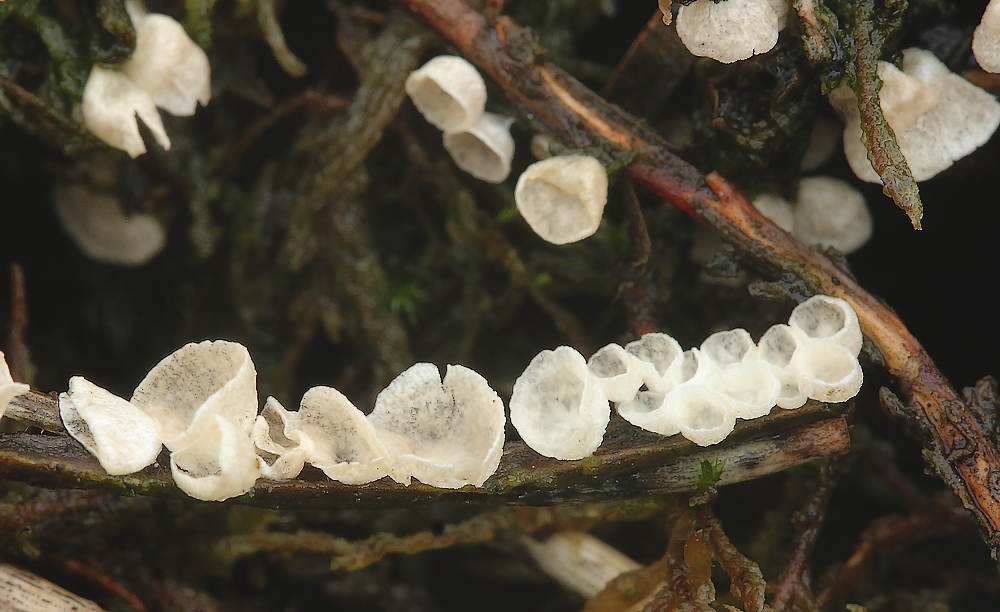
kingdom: Fungi
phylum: Basidiomycota
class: Agaricomycetes
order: Agaricales
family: Hygrophoraceae
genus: Arrhenia
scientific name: Arrhenia retiruga
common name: lille fontænehat
